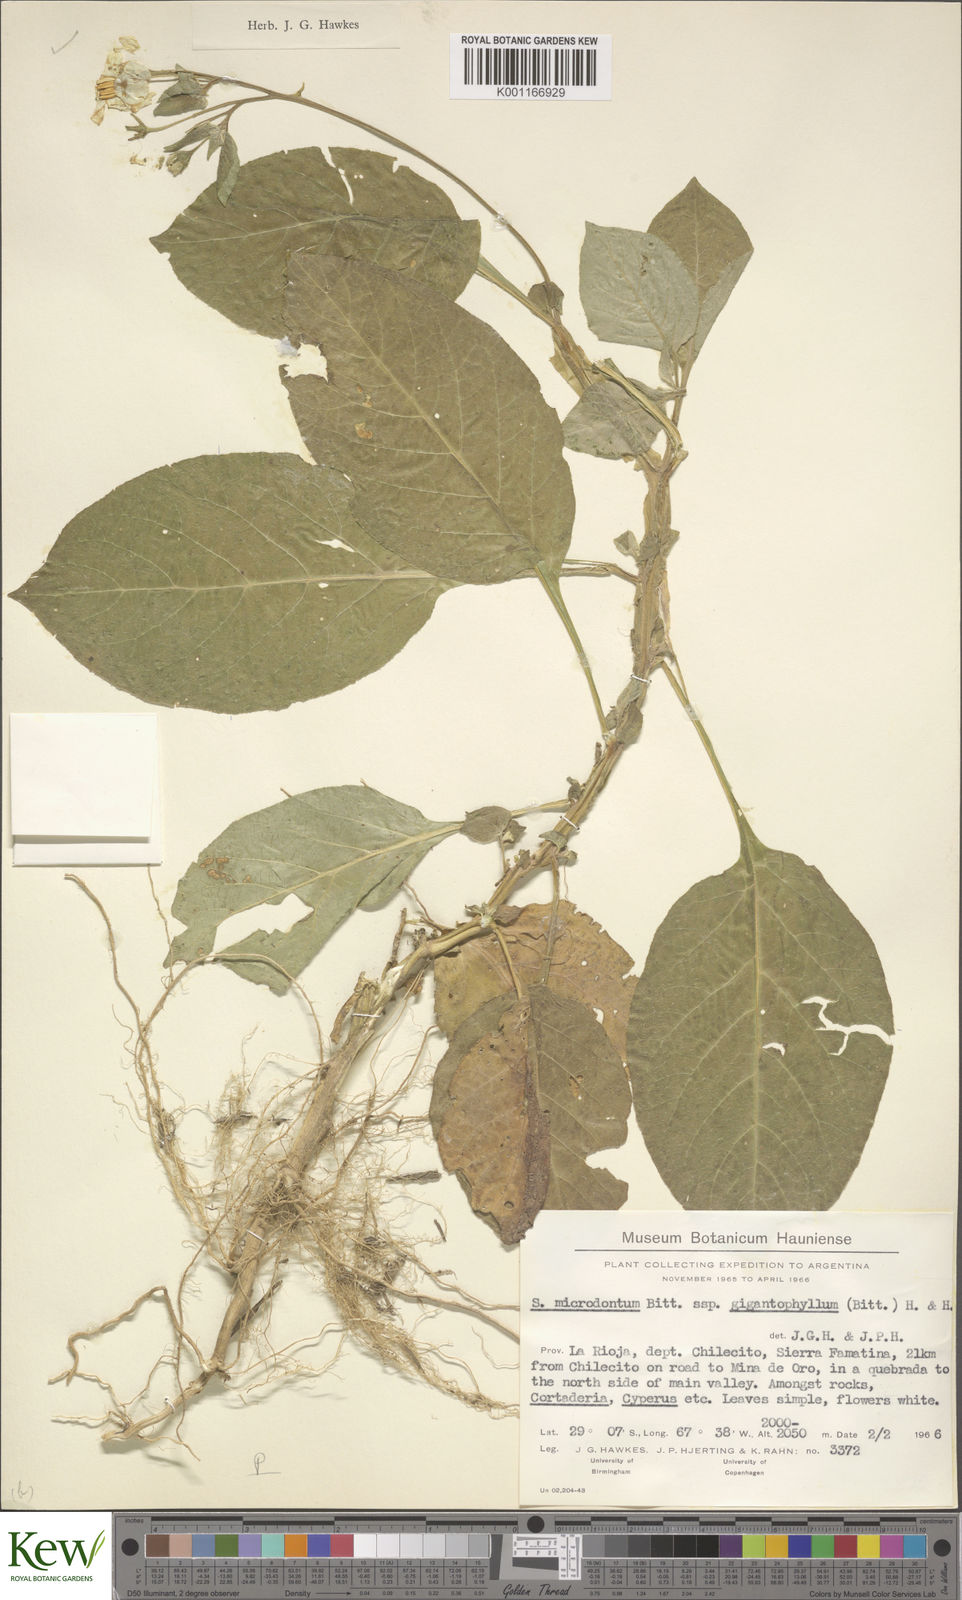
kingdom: Plantae
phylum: Tracheophyta
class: Magnoliopsida
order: Solanales
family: Solanaceae
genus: Solanum
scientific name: Solanum microdontum
